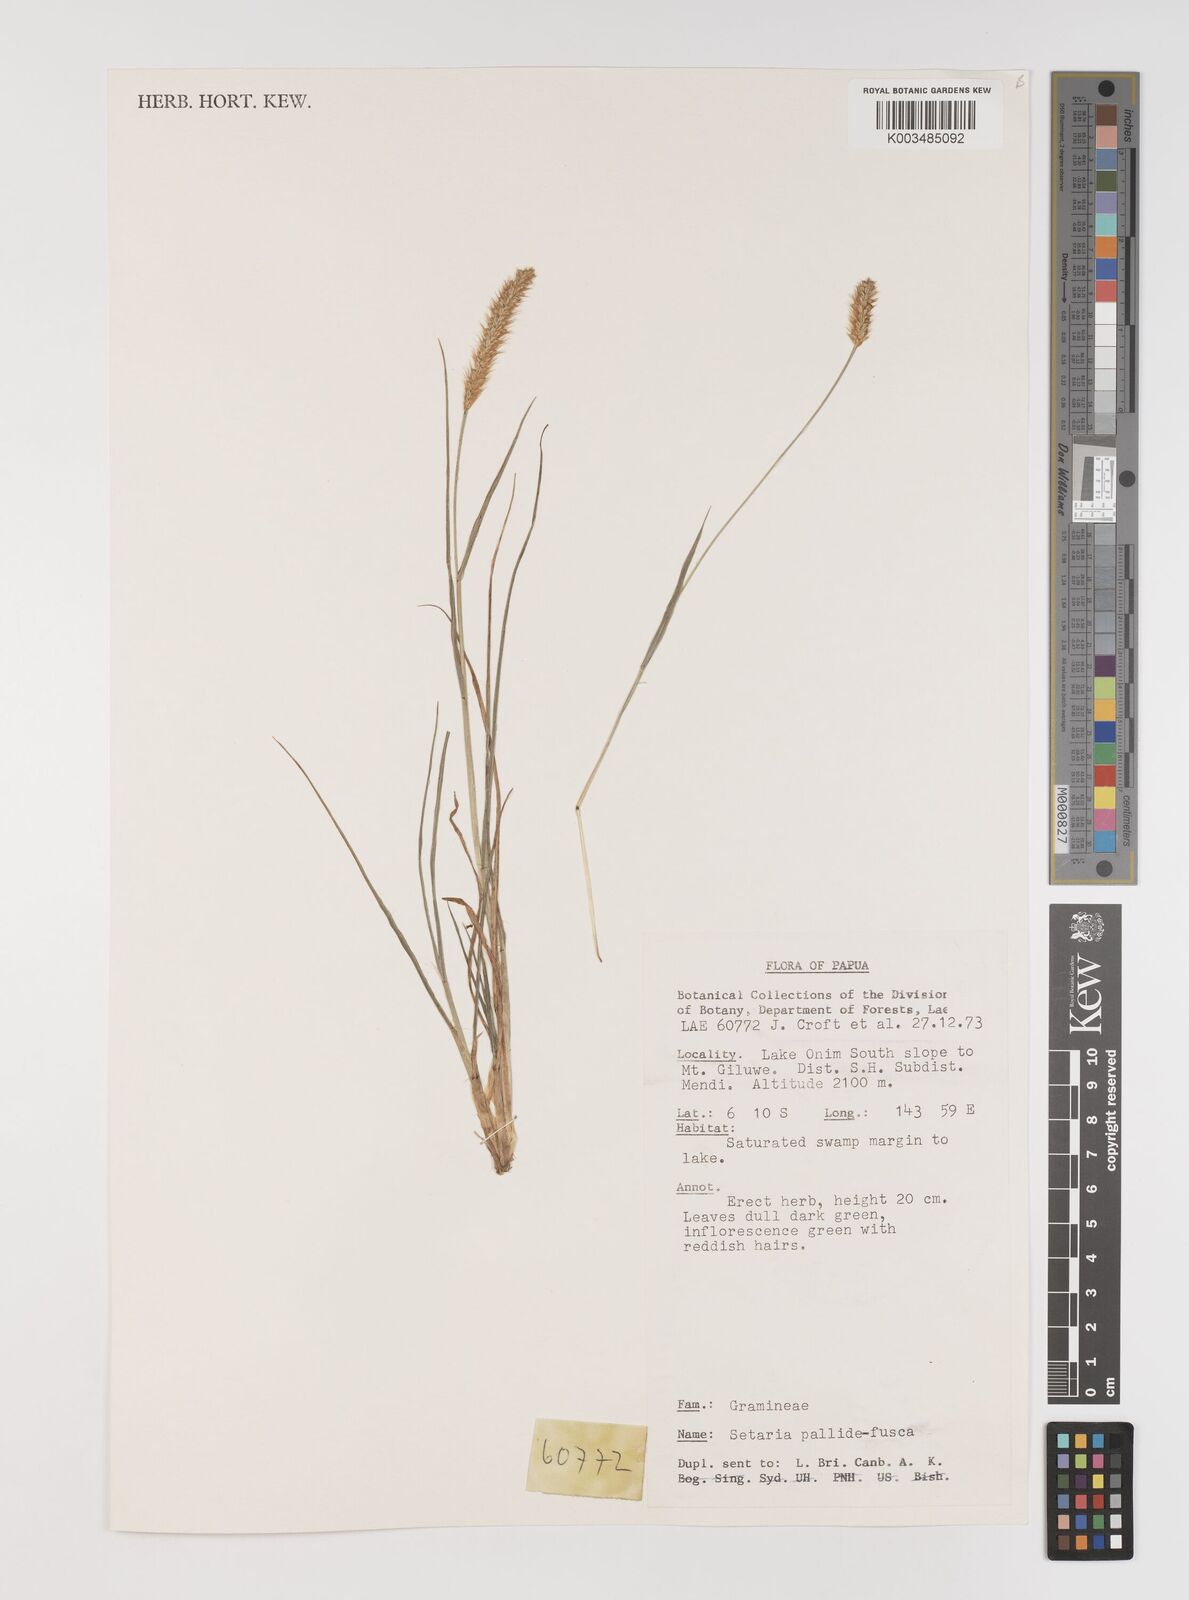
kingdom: Plantae
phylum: Tracheophyta
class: Liliopsida
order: Poales
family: Poaceae
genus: Setaria
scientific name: Setaria pumila
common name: Yellow bristle-grass
